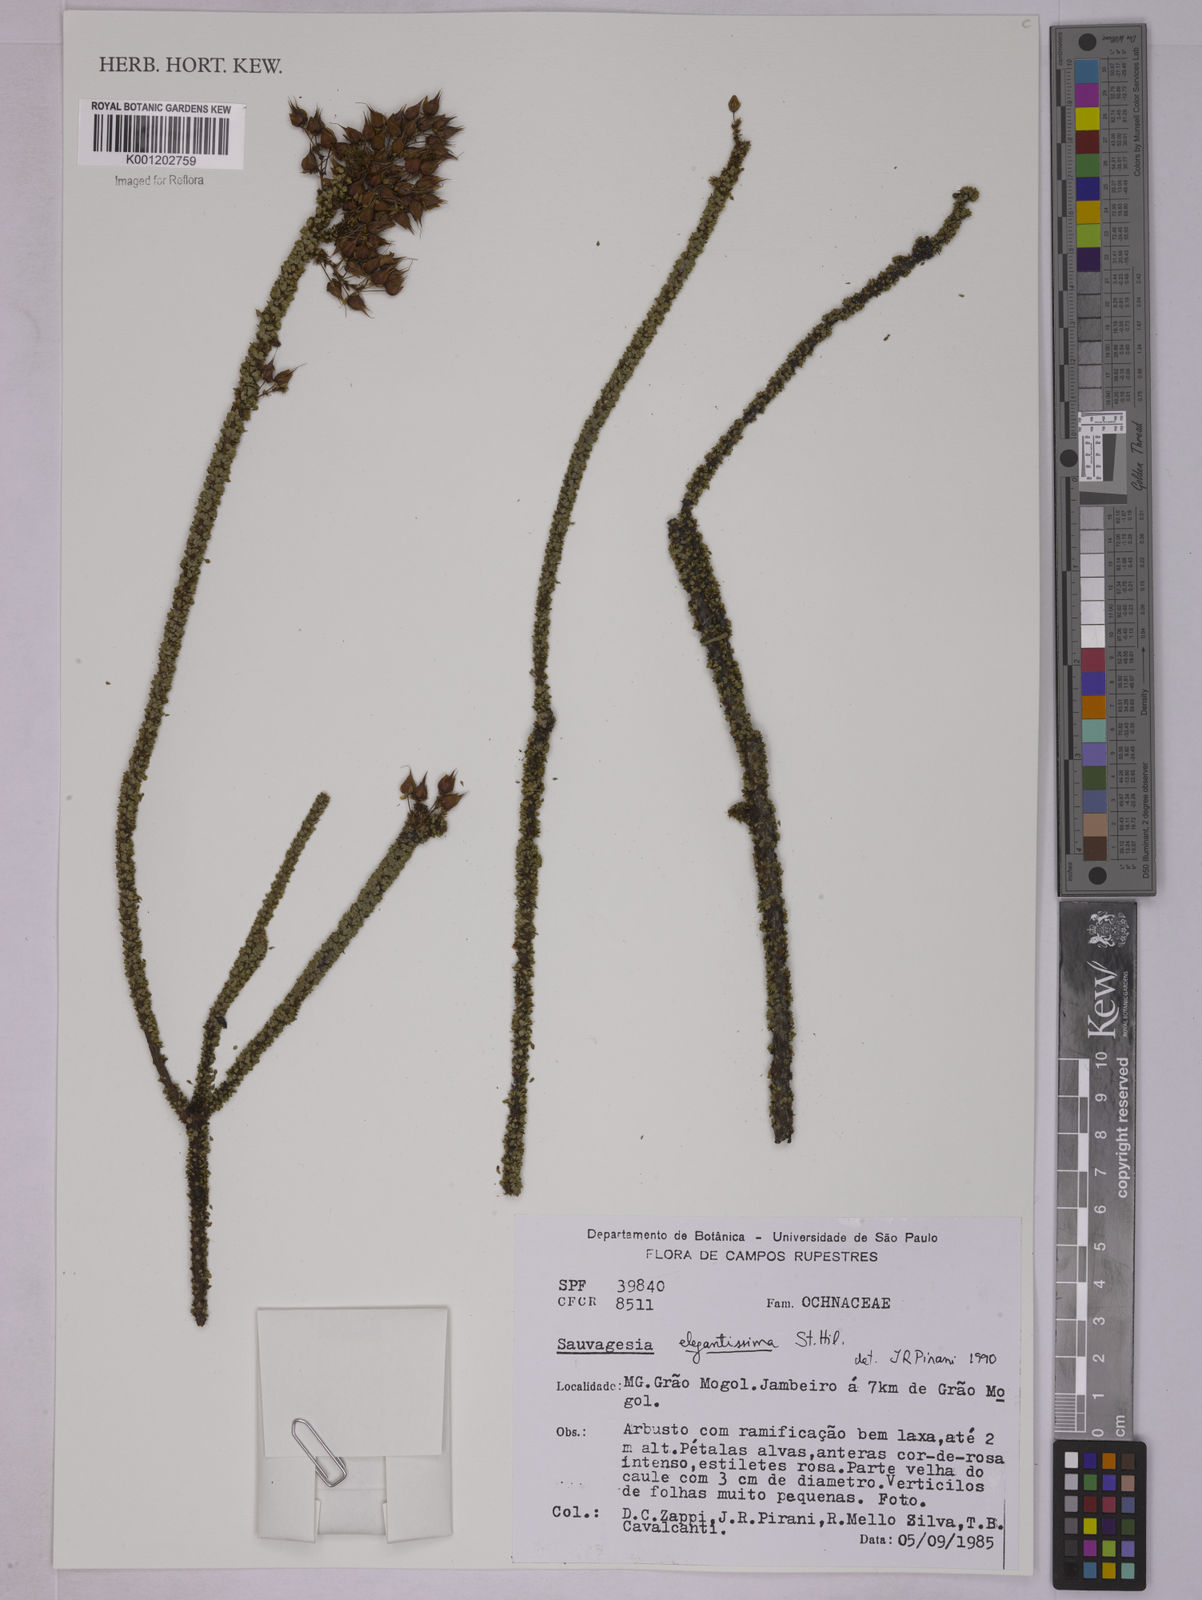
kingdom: Plantae
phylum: Tracheophyta
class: Magnoliopsida
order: Malpighiales
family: Ochnaceae
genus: Sauvagesia
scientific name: Sauvagesia elegantissima
